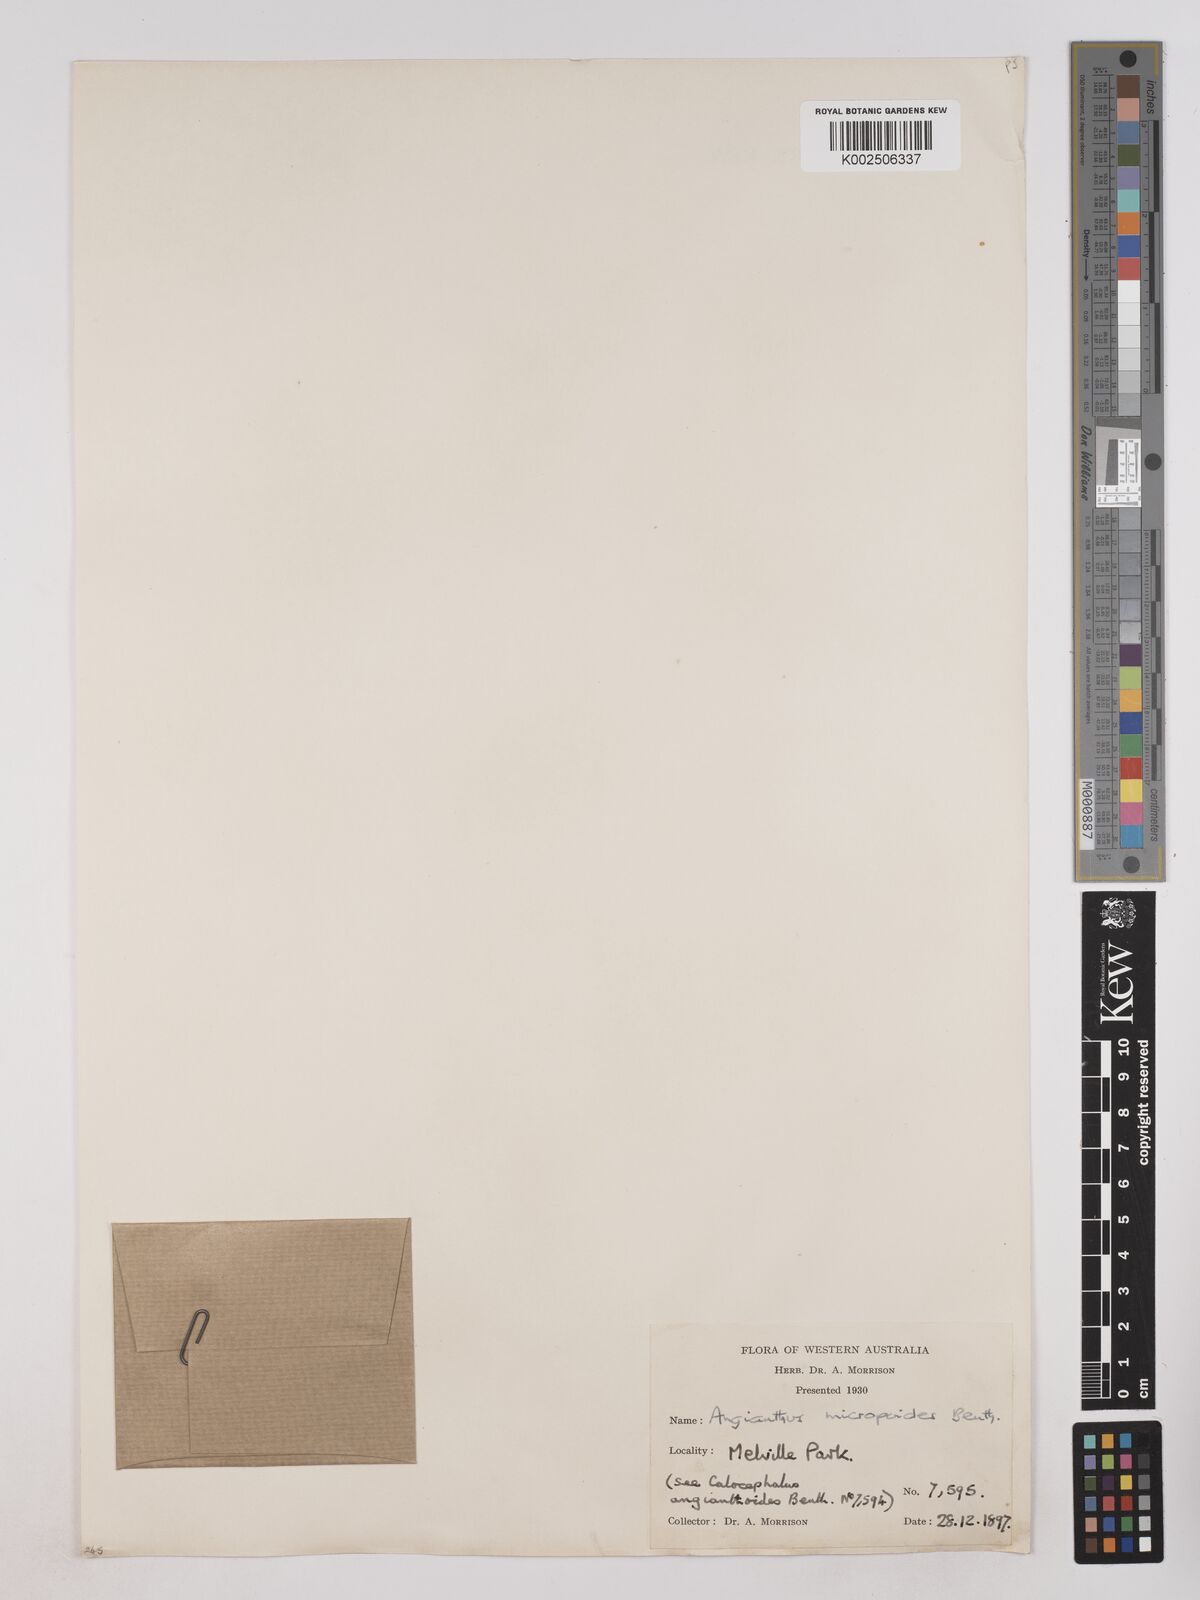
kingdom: Plantae
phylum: Tracheophyta
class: Magnoliopsida
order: Asterales
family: Asteraceae
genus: Angianthus
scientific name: Angianthus micropodioides
